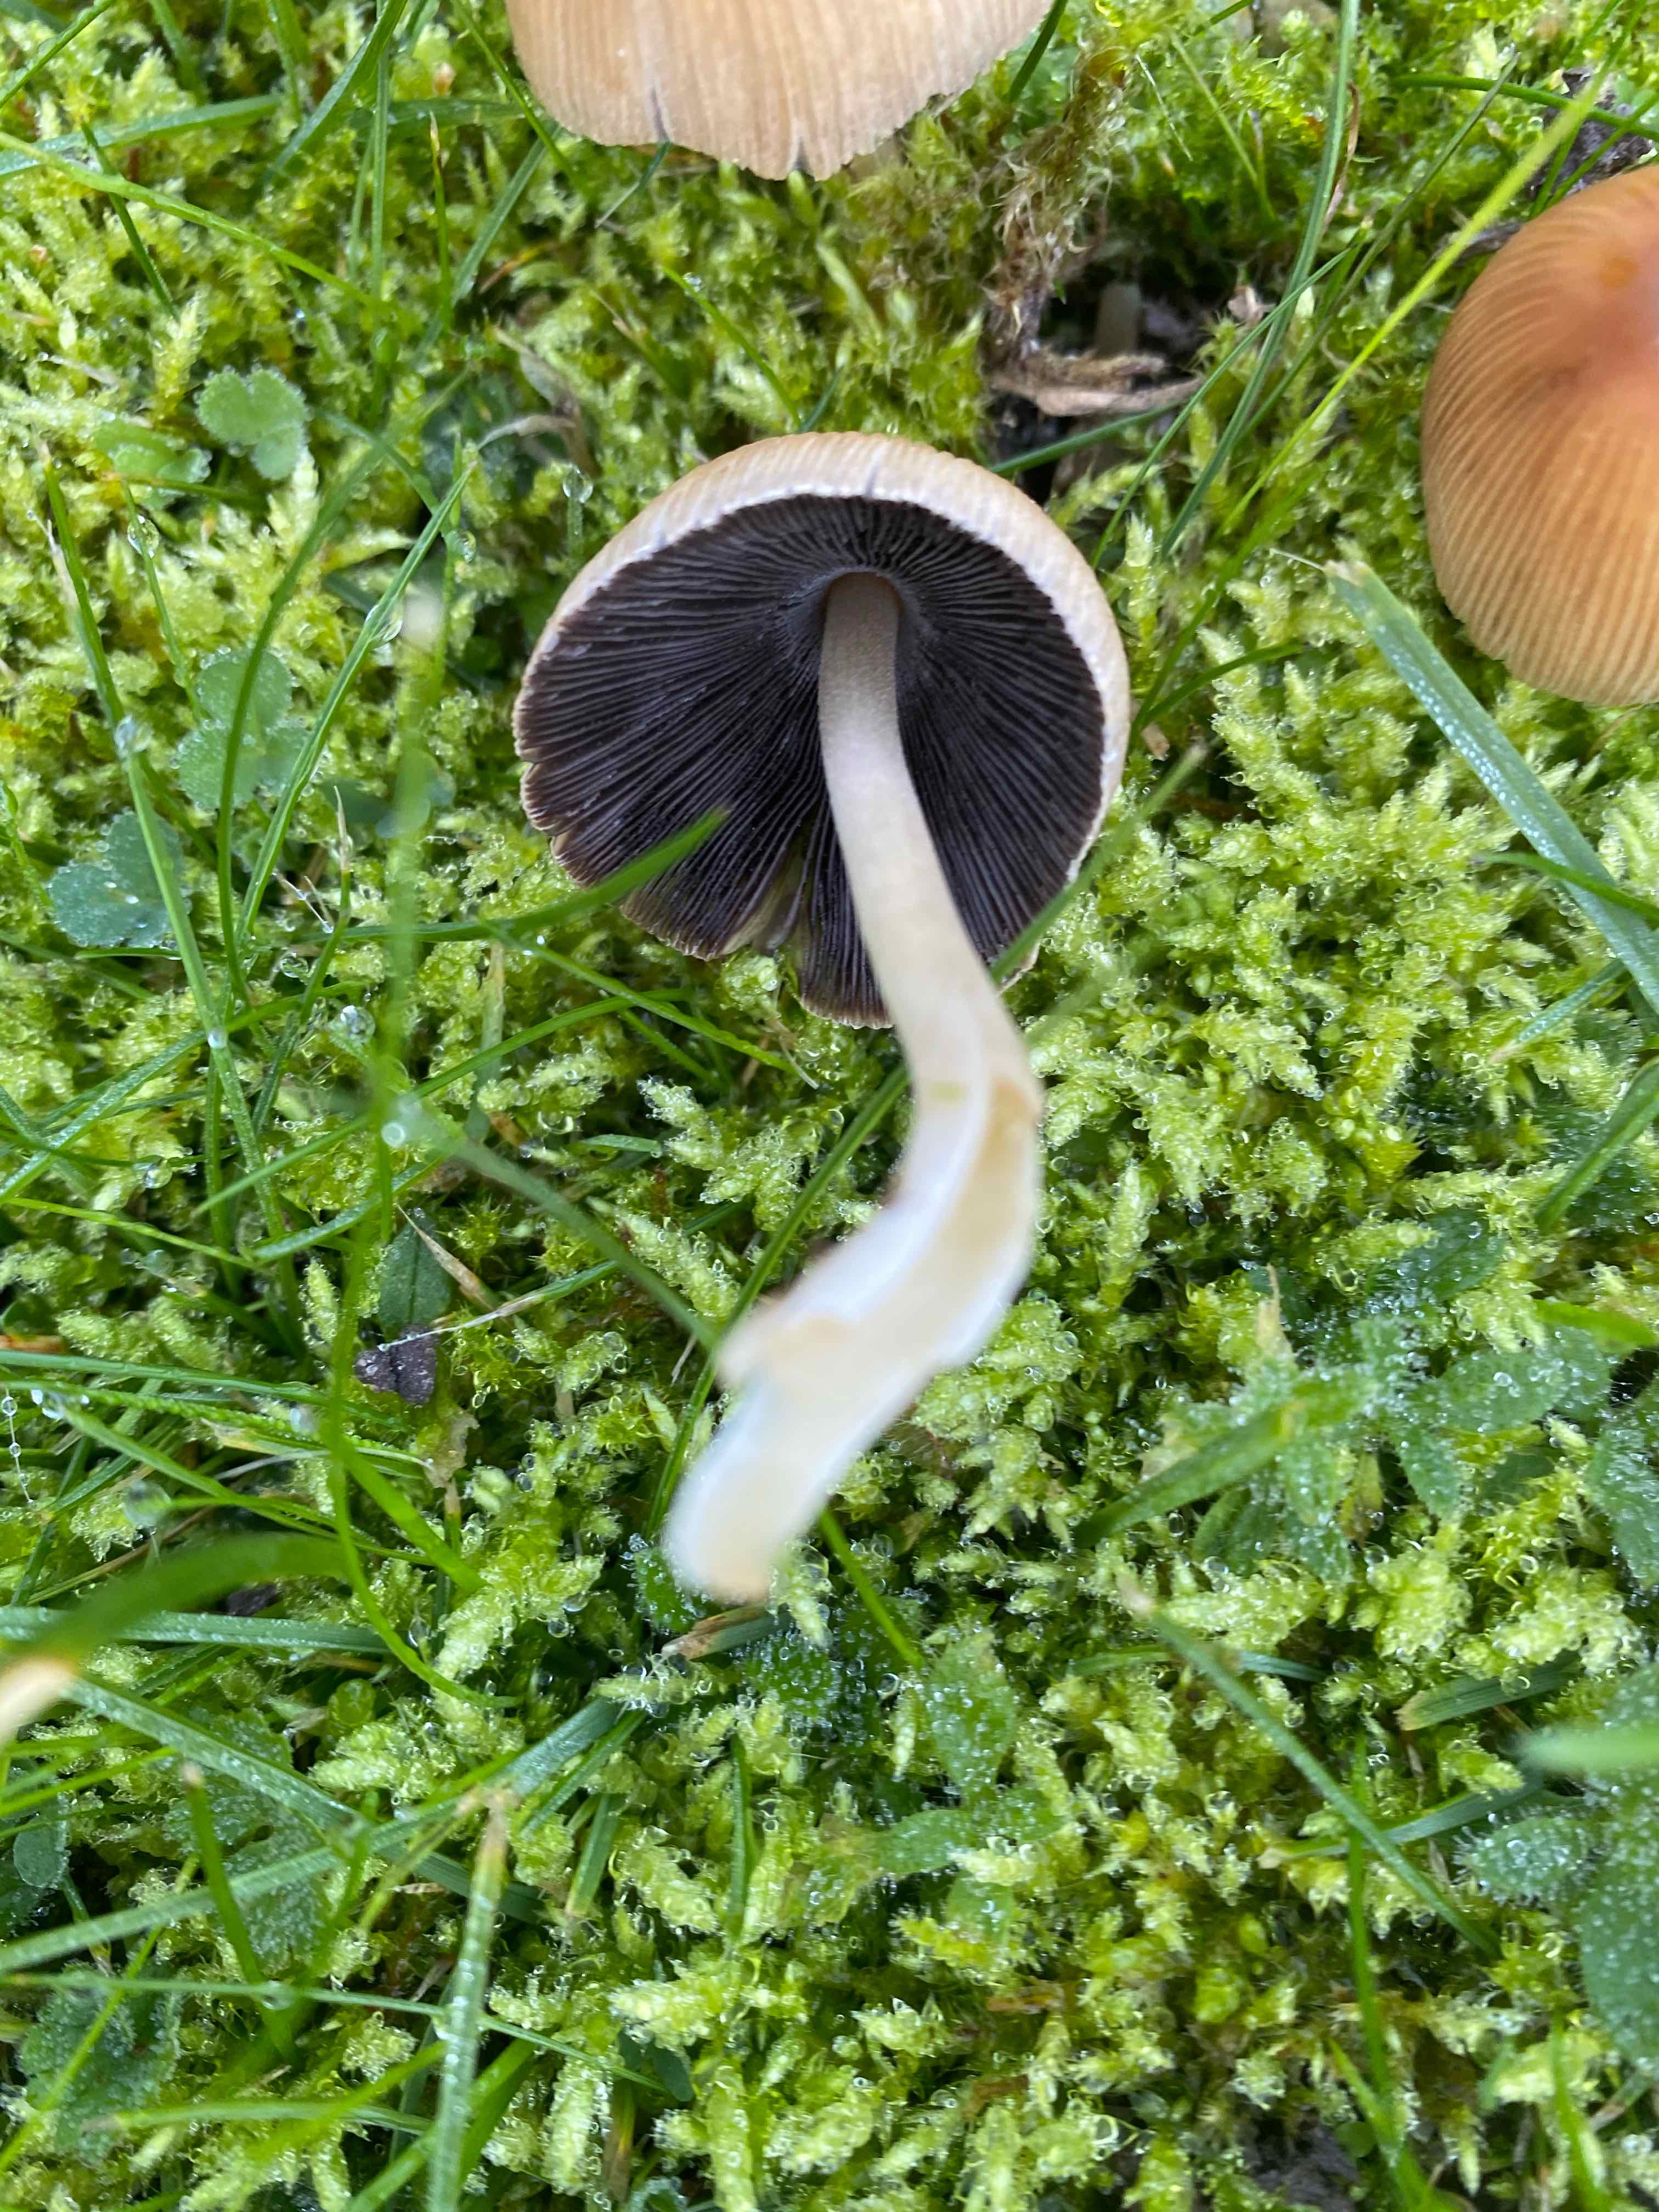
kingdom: Fungi
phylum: Basidiomycota
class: Agaricomycetes
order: Agaricales
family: Psathyrellaceae
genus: Coprinellus
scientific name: Coprinellus micaceus
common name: glimmer-blækhat
